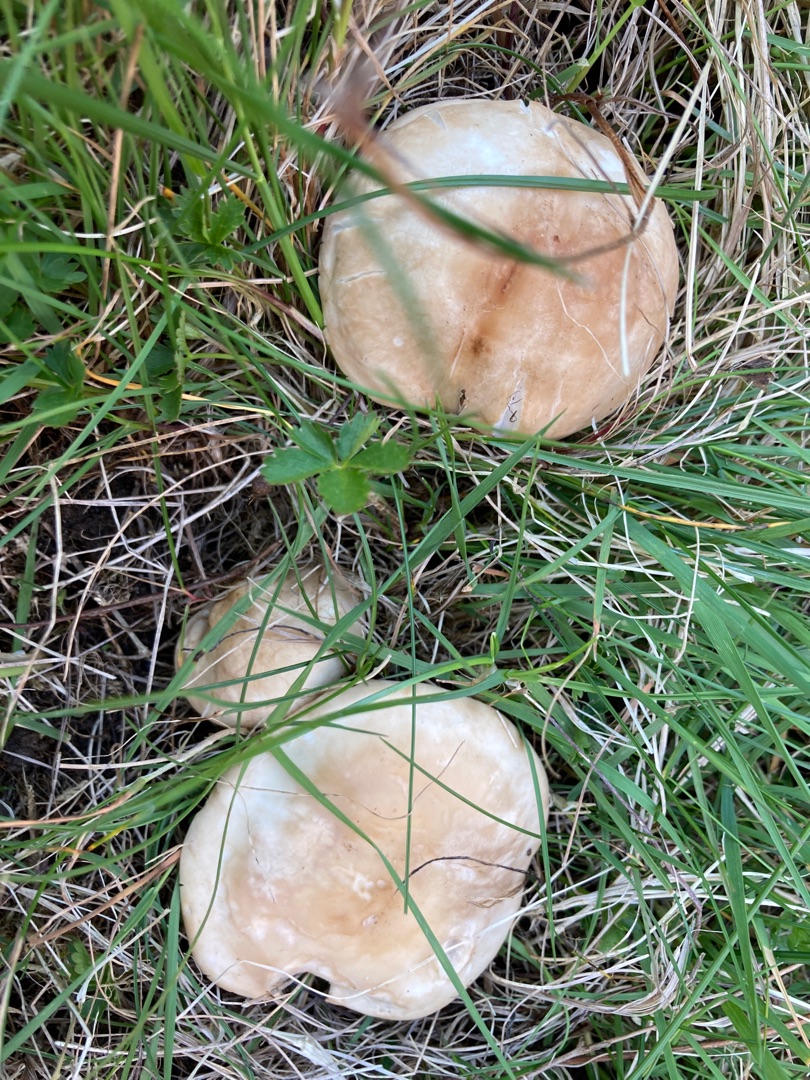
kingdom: Fungi
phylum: Basidiomycota
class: Agaricomycetes
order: Agaricales
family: Lyophyllaceae
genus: Calocybe
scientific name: Calocybe gambosa
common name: Vårmusseron
